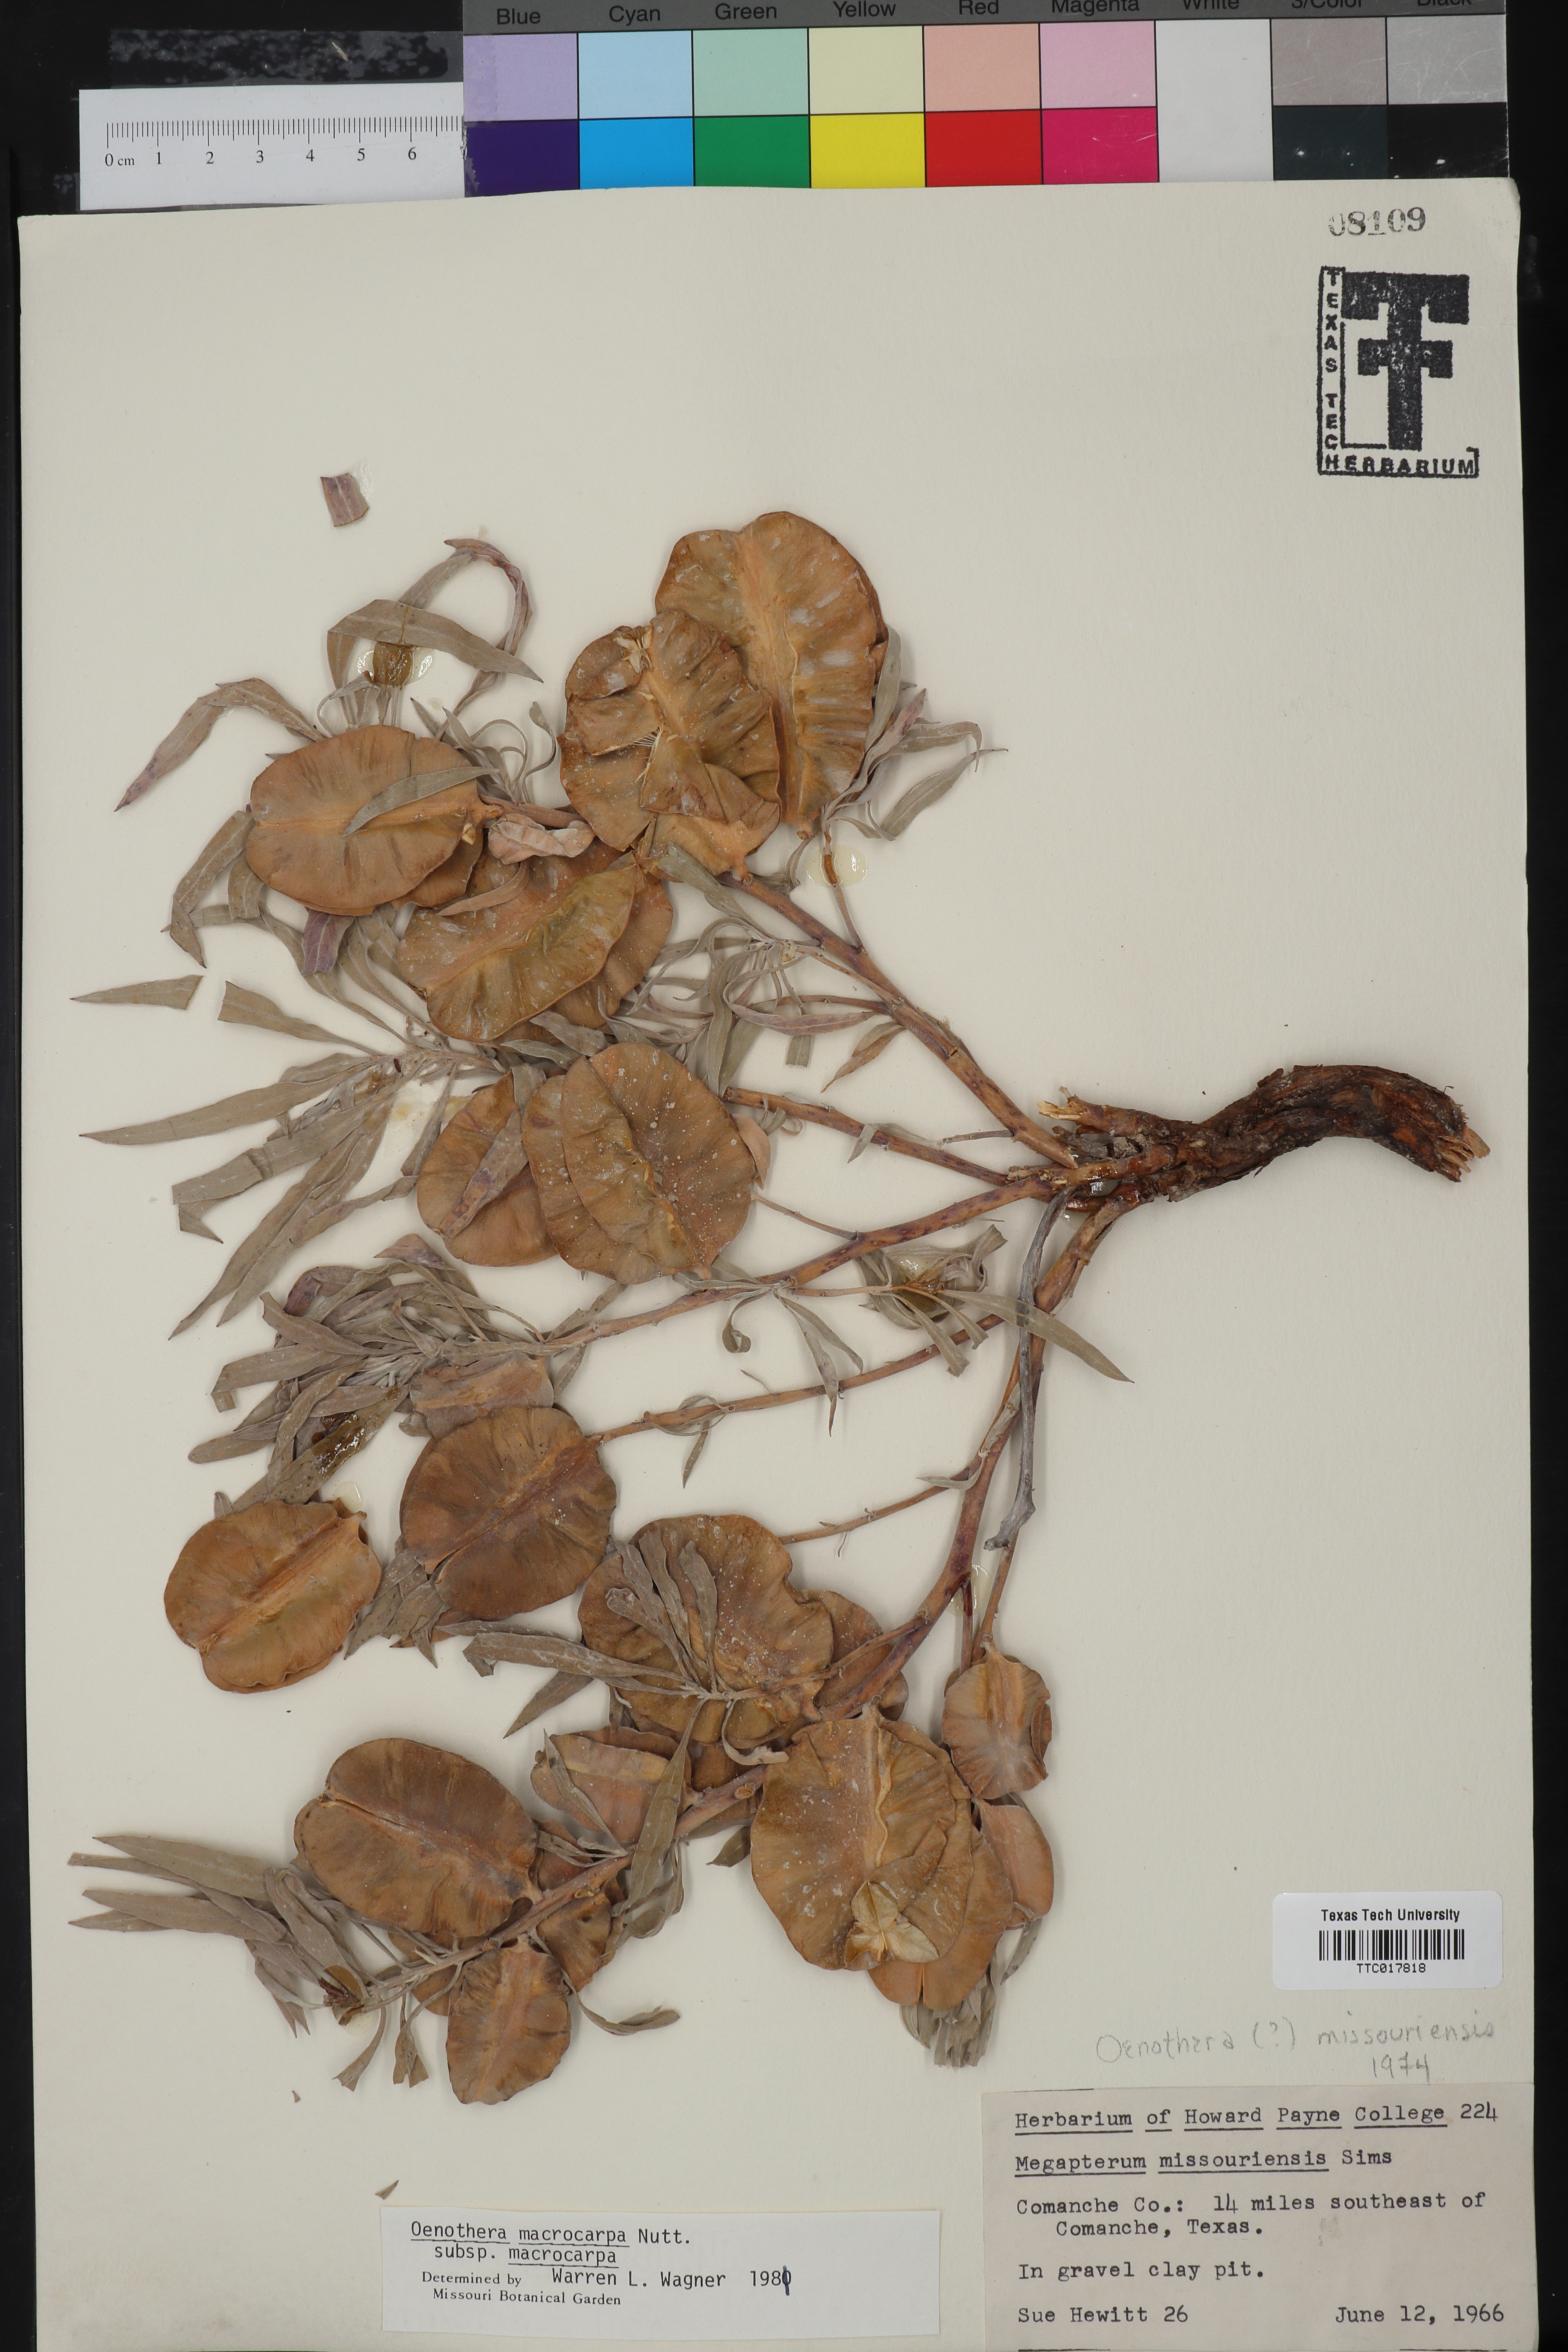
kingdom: Plantae
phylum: Tracheophyta
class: Magnoliopsida
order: Myrtales
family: Onagraceae
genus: Oenothera
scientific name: Oenothera macrocarpa
